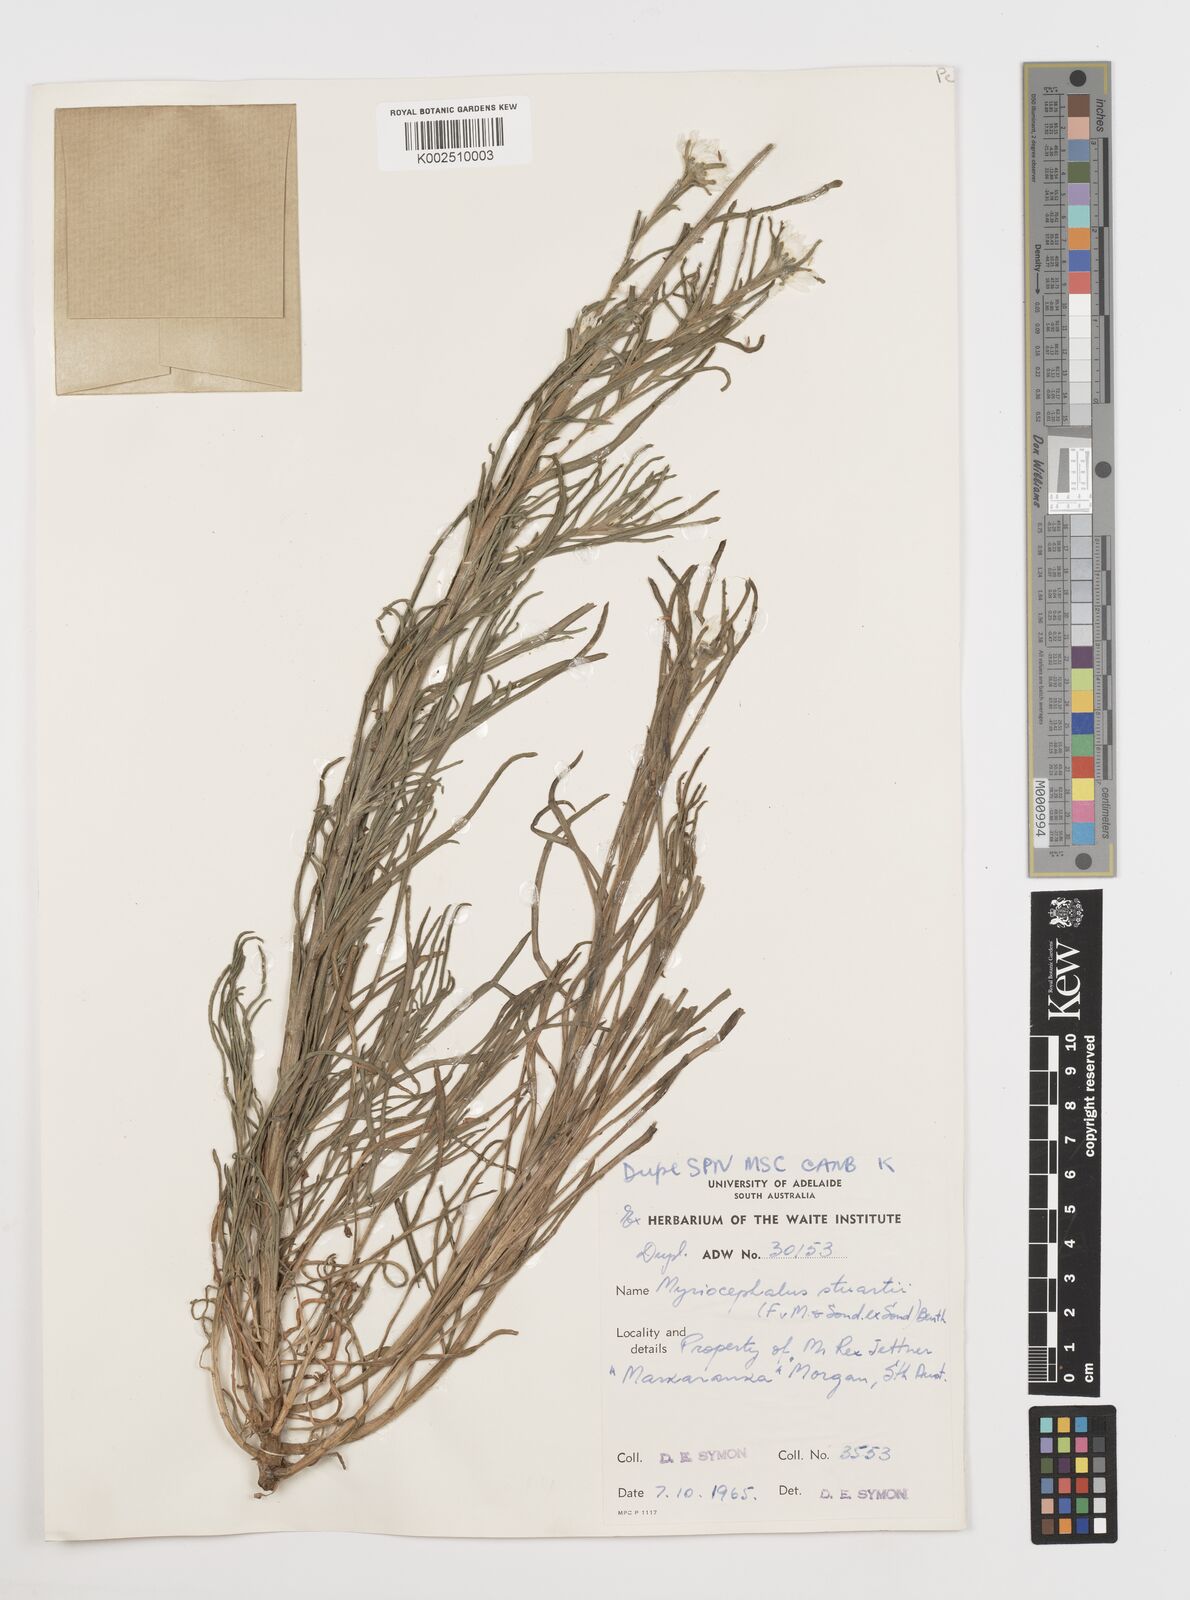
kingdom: Plantae
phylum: Tracheophyta
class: Magnoliopsida
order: Asterales
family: Asteraceae
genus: Polycalymma
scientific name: Polycalymma stuartii
